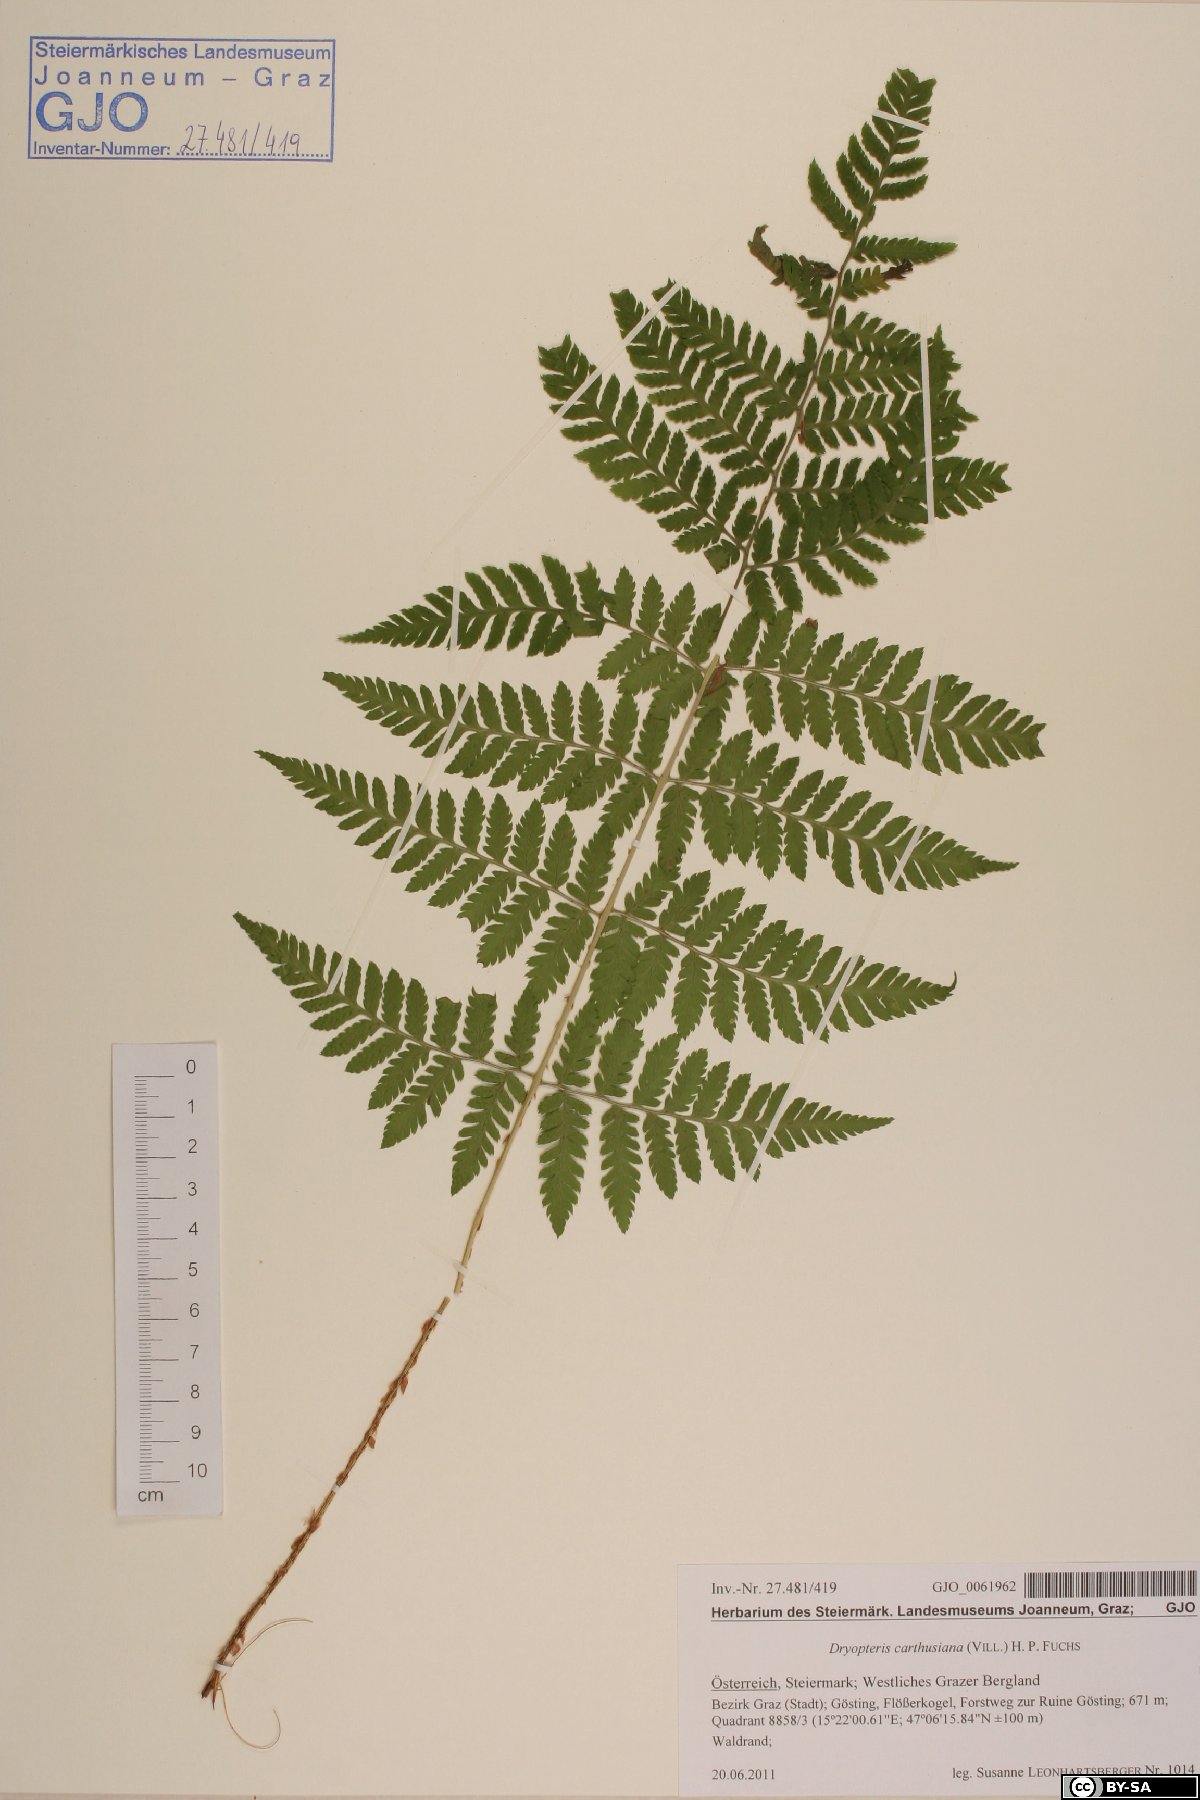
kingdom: Plantae
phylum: Tracheophyta
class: Polypodiopsida
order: Polypodiales
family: Dryopteridaceae
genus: Dryopteris
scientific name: Dryopteris carthusiana
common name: Narrow buckler-fern
